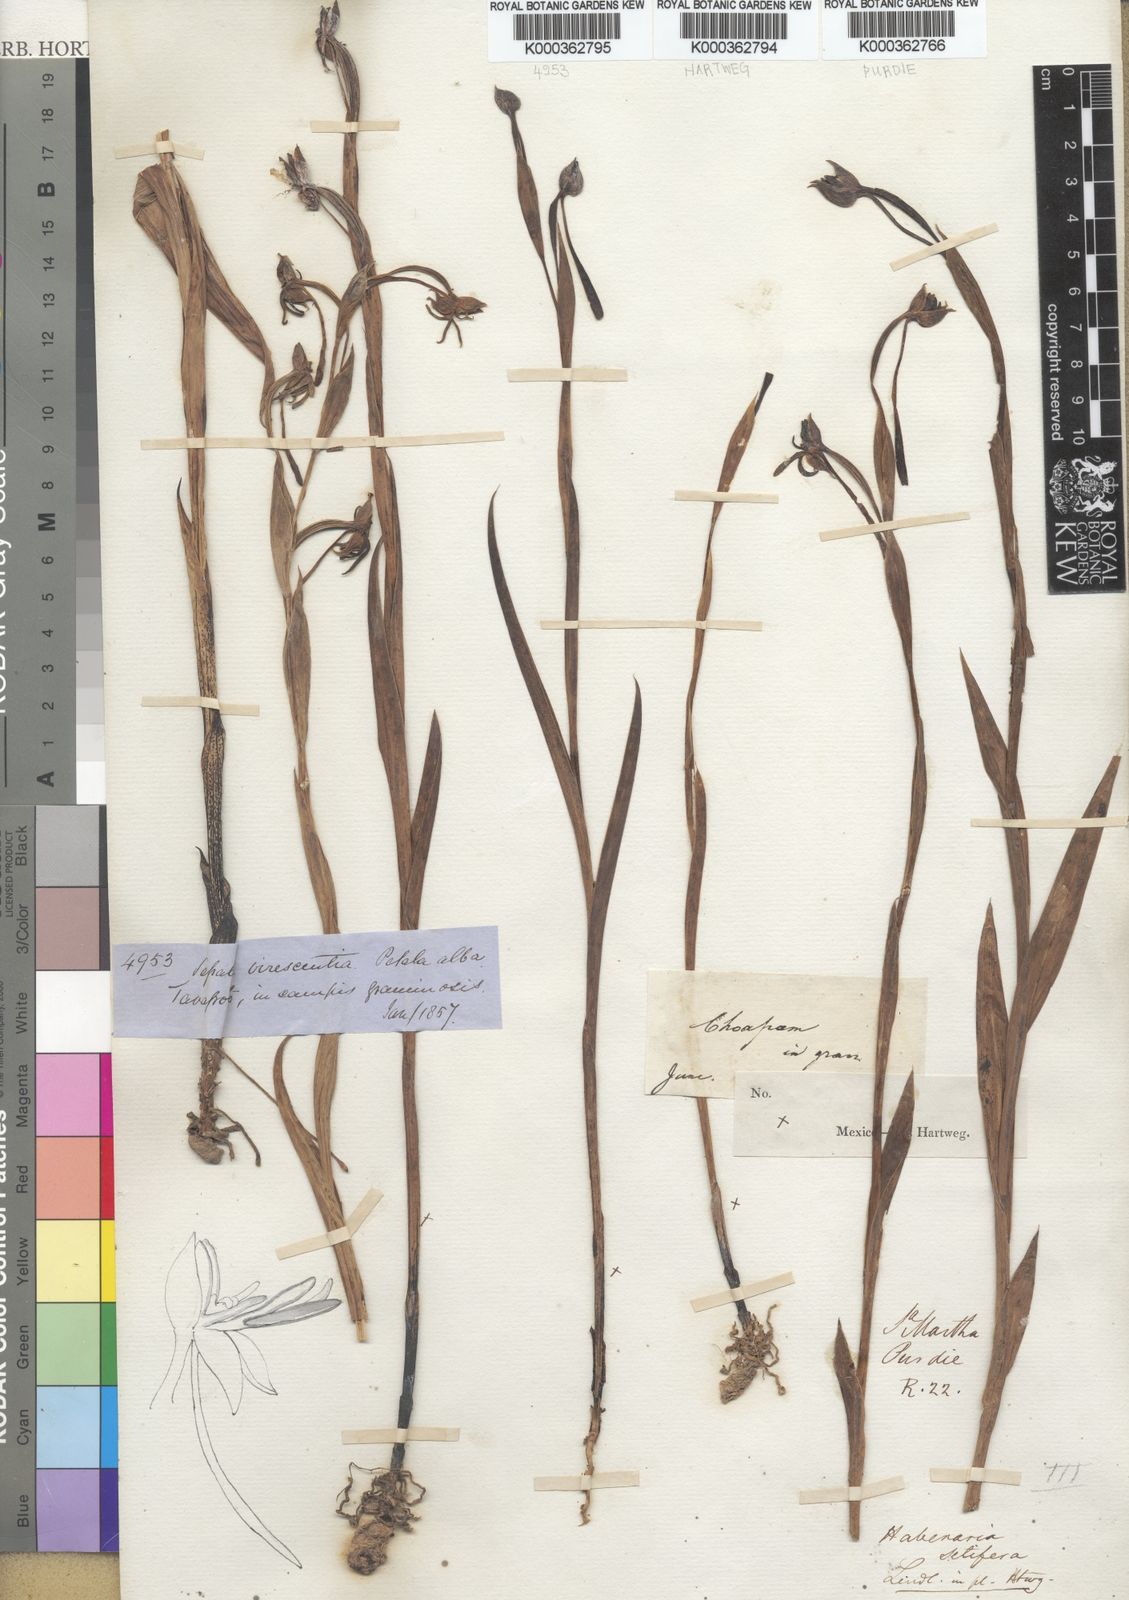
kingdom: Plantae
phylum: Tracheophyta
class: Liliopsida
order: Asparagales
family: Orchidaceae
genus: Habenaria
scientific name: Habenaria trifida
